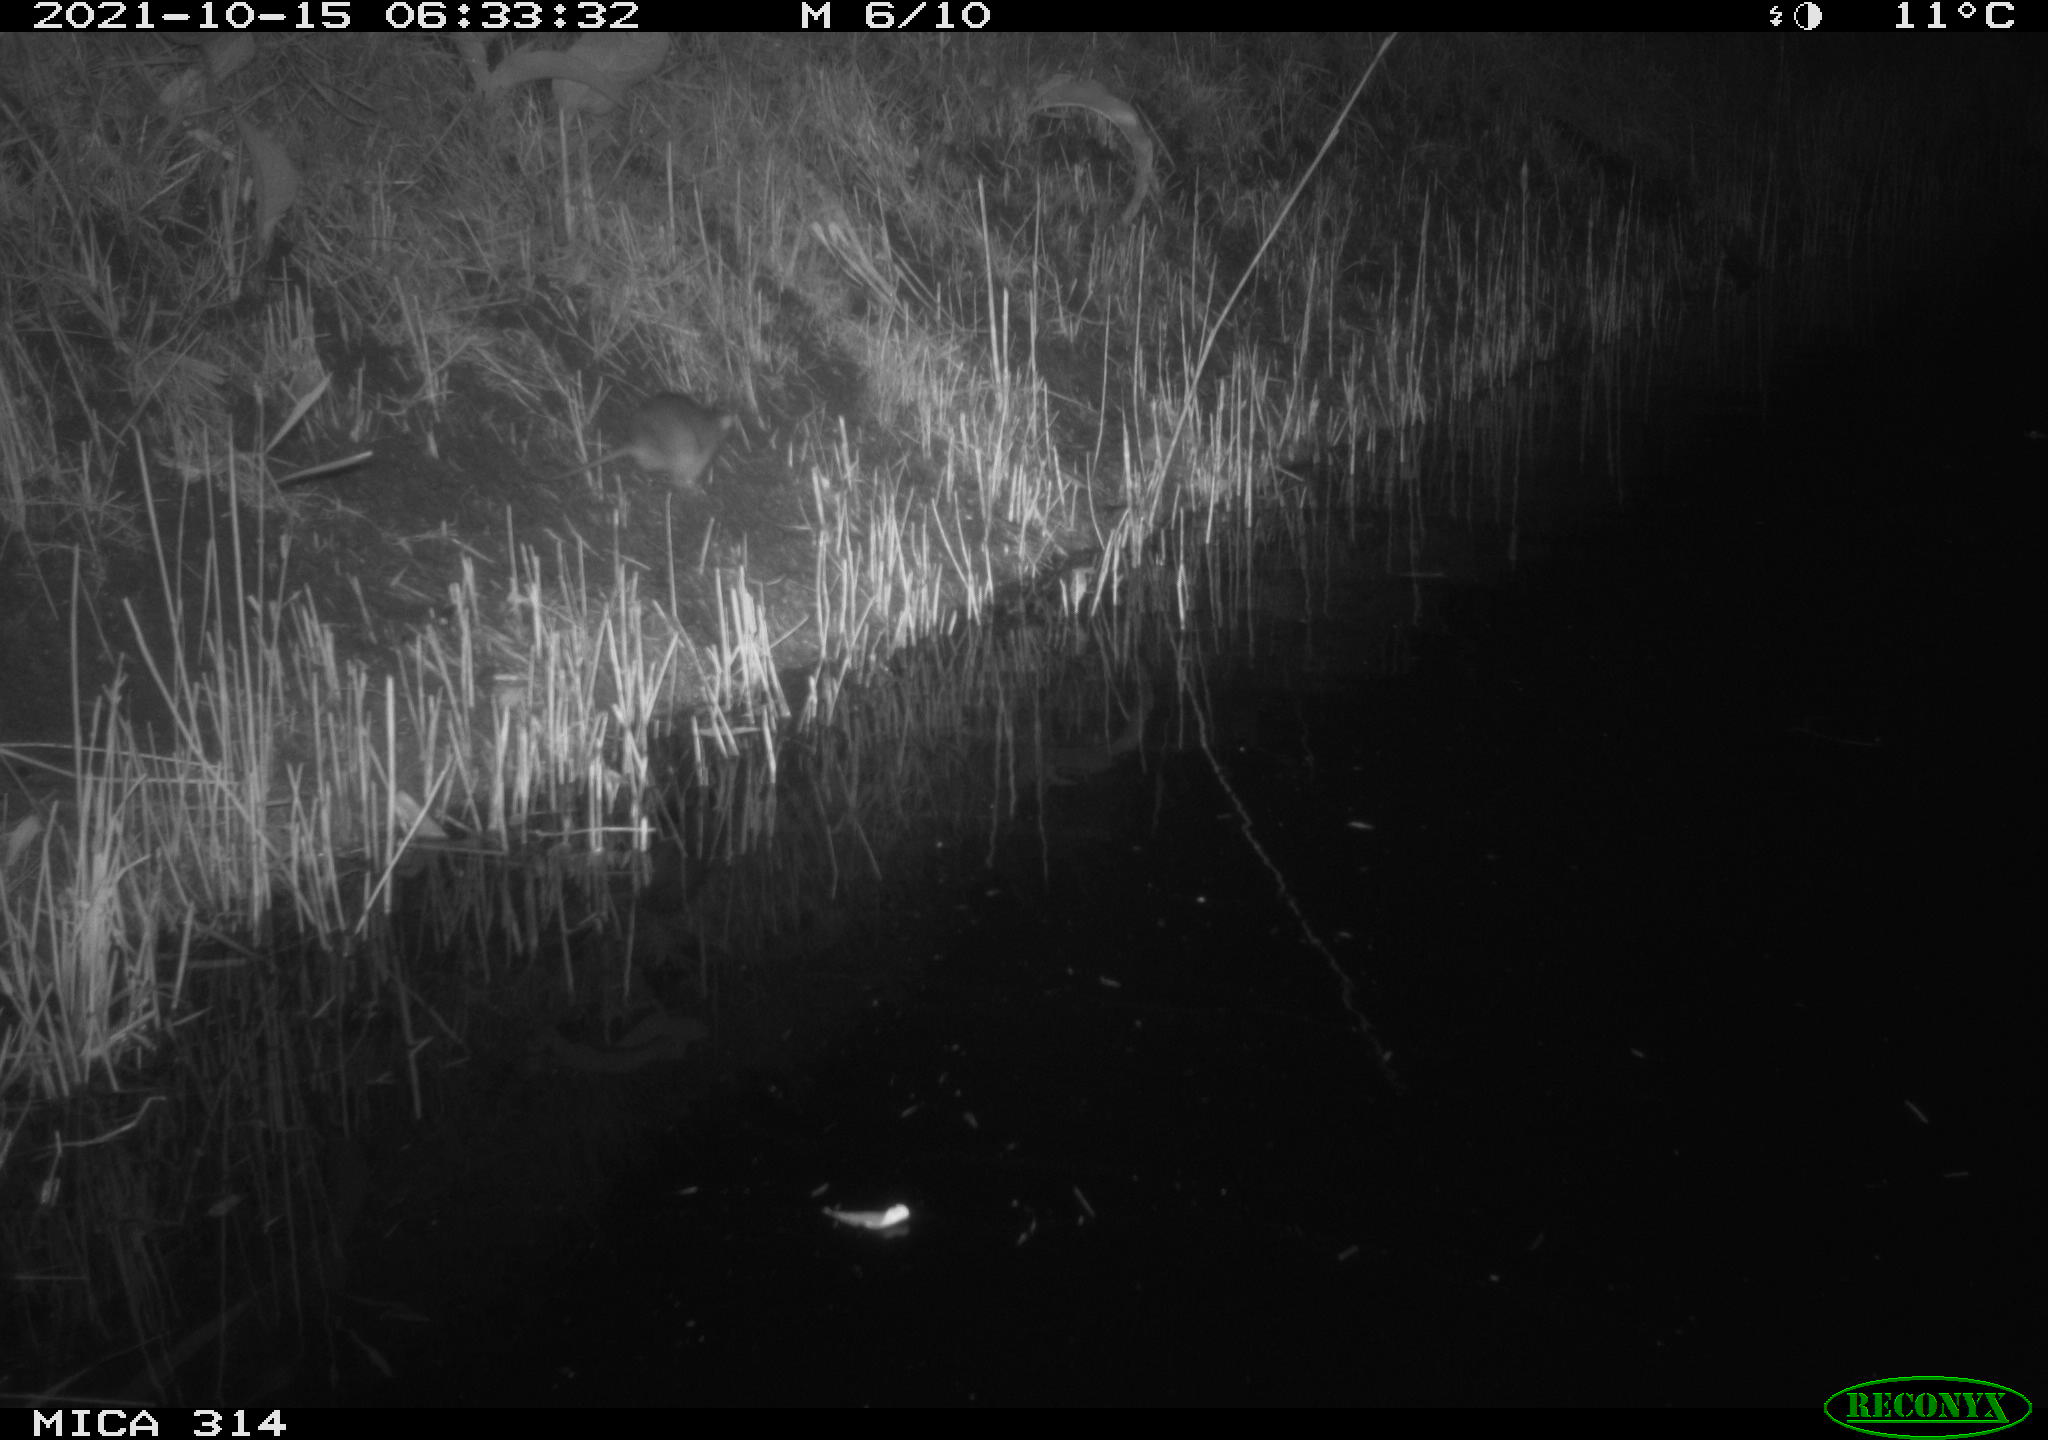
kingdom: Animalia
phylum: Chordata
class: Mammalia
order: Rodentia
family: Muridae
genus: Rattus
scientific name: Rattus norvegicus
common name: Brown rat
